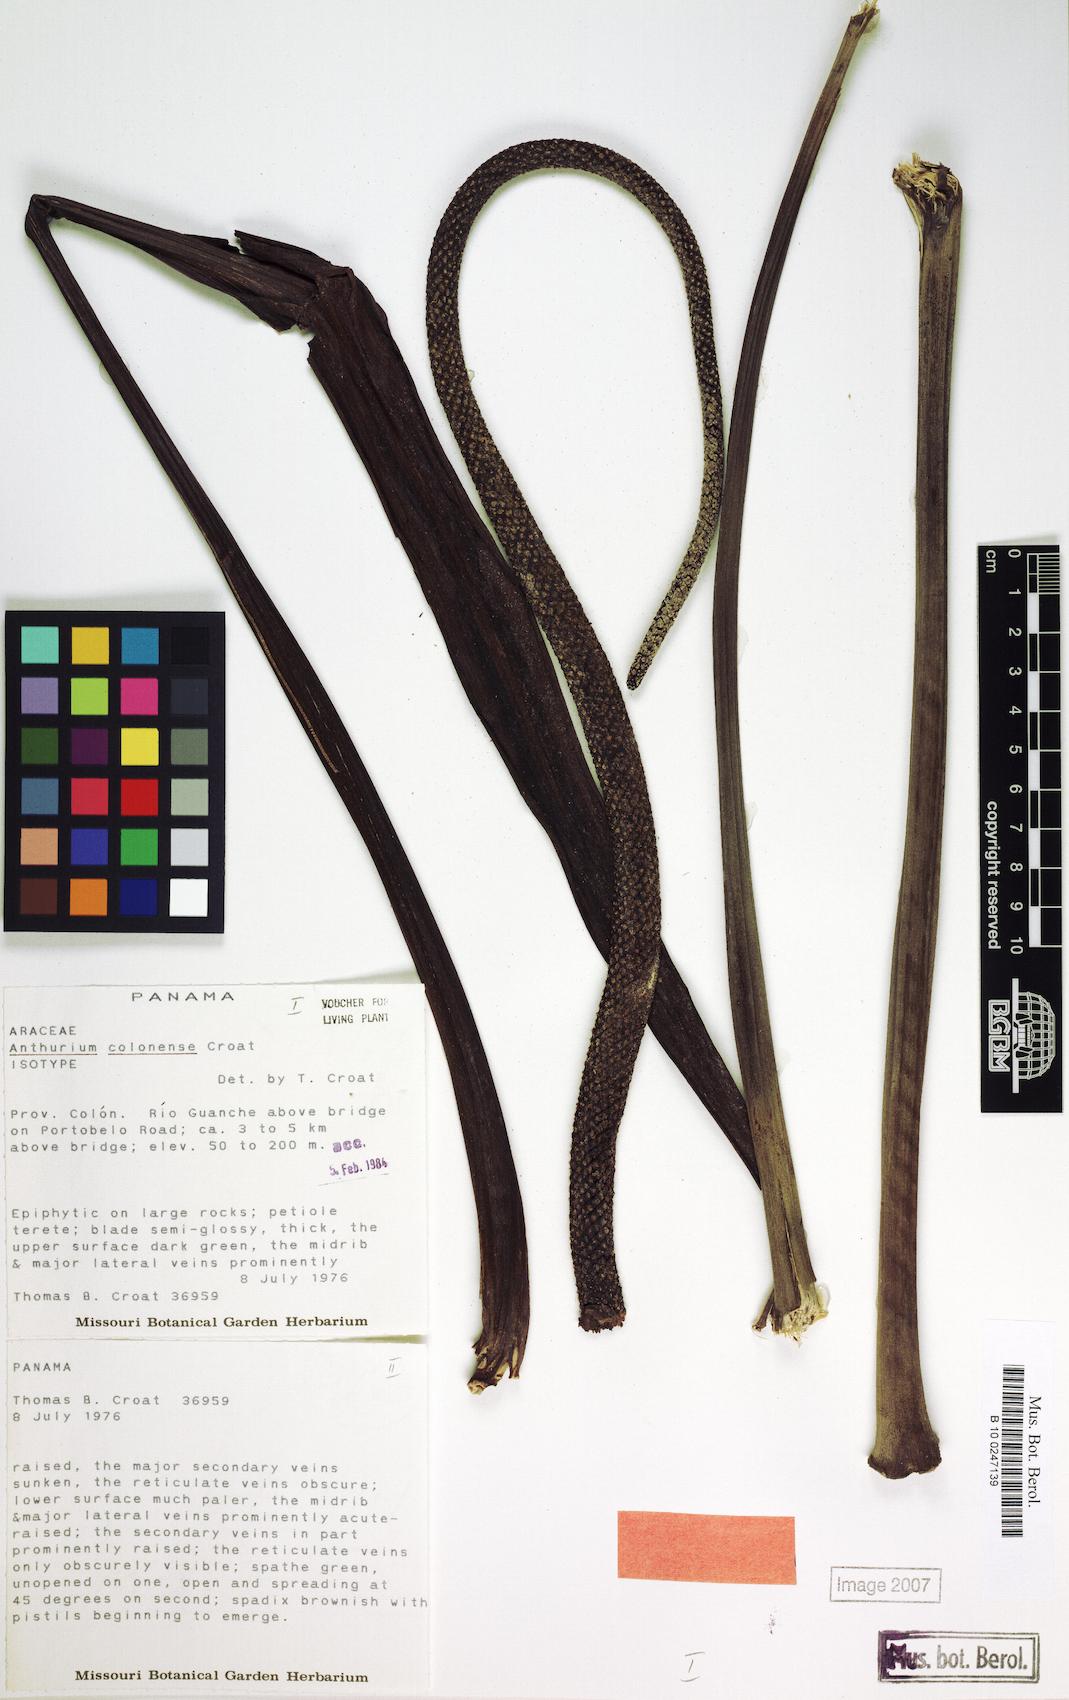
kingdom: Plantae
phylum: Tracheophyta
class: Liliopsida
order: Alismatales
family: Araceae
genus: Anthurium
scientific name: Anthurium colonense
